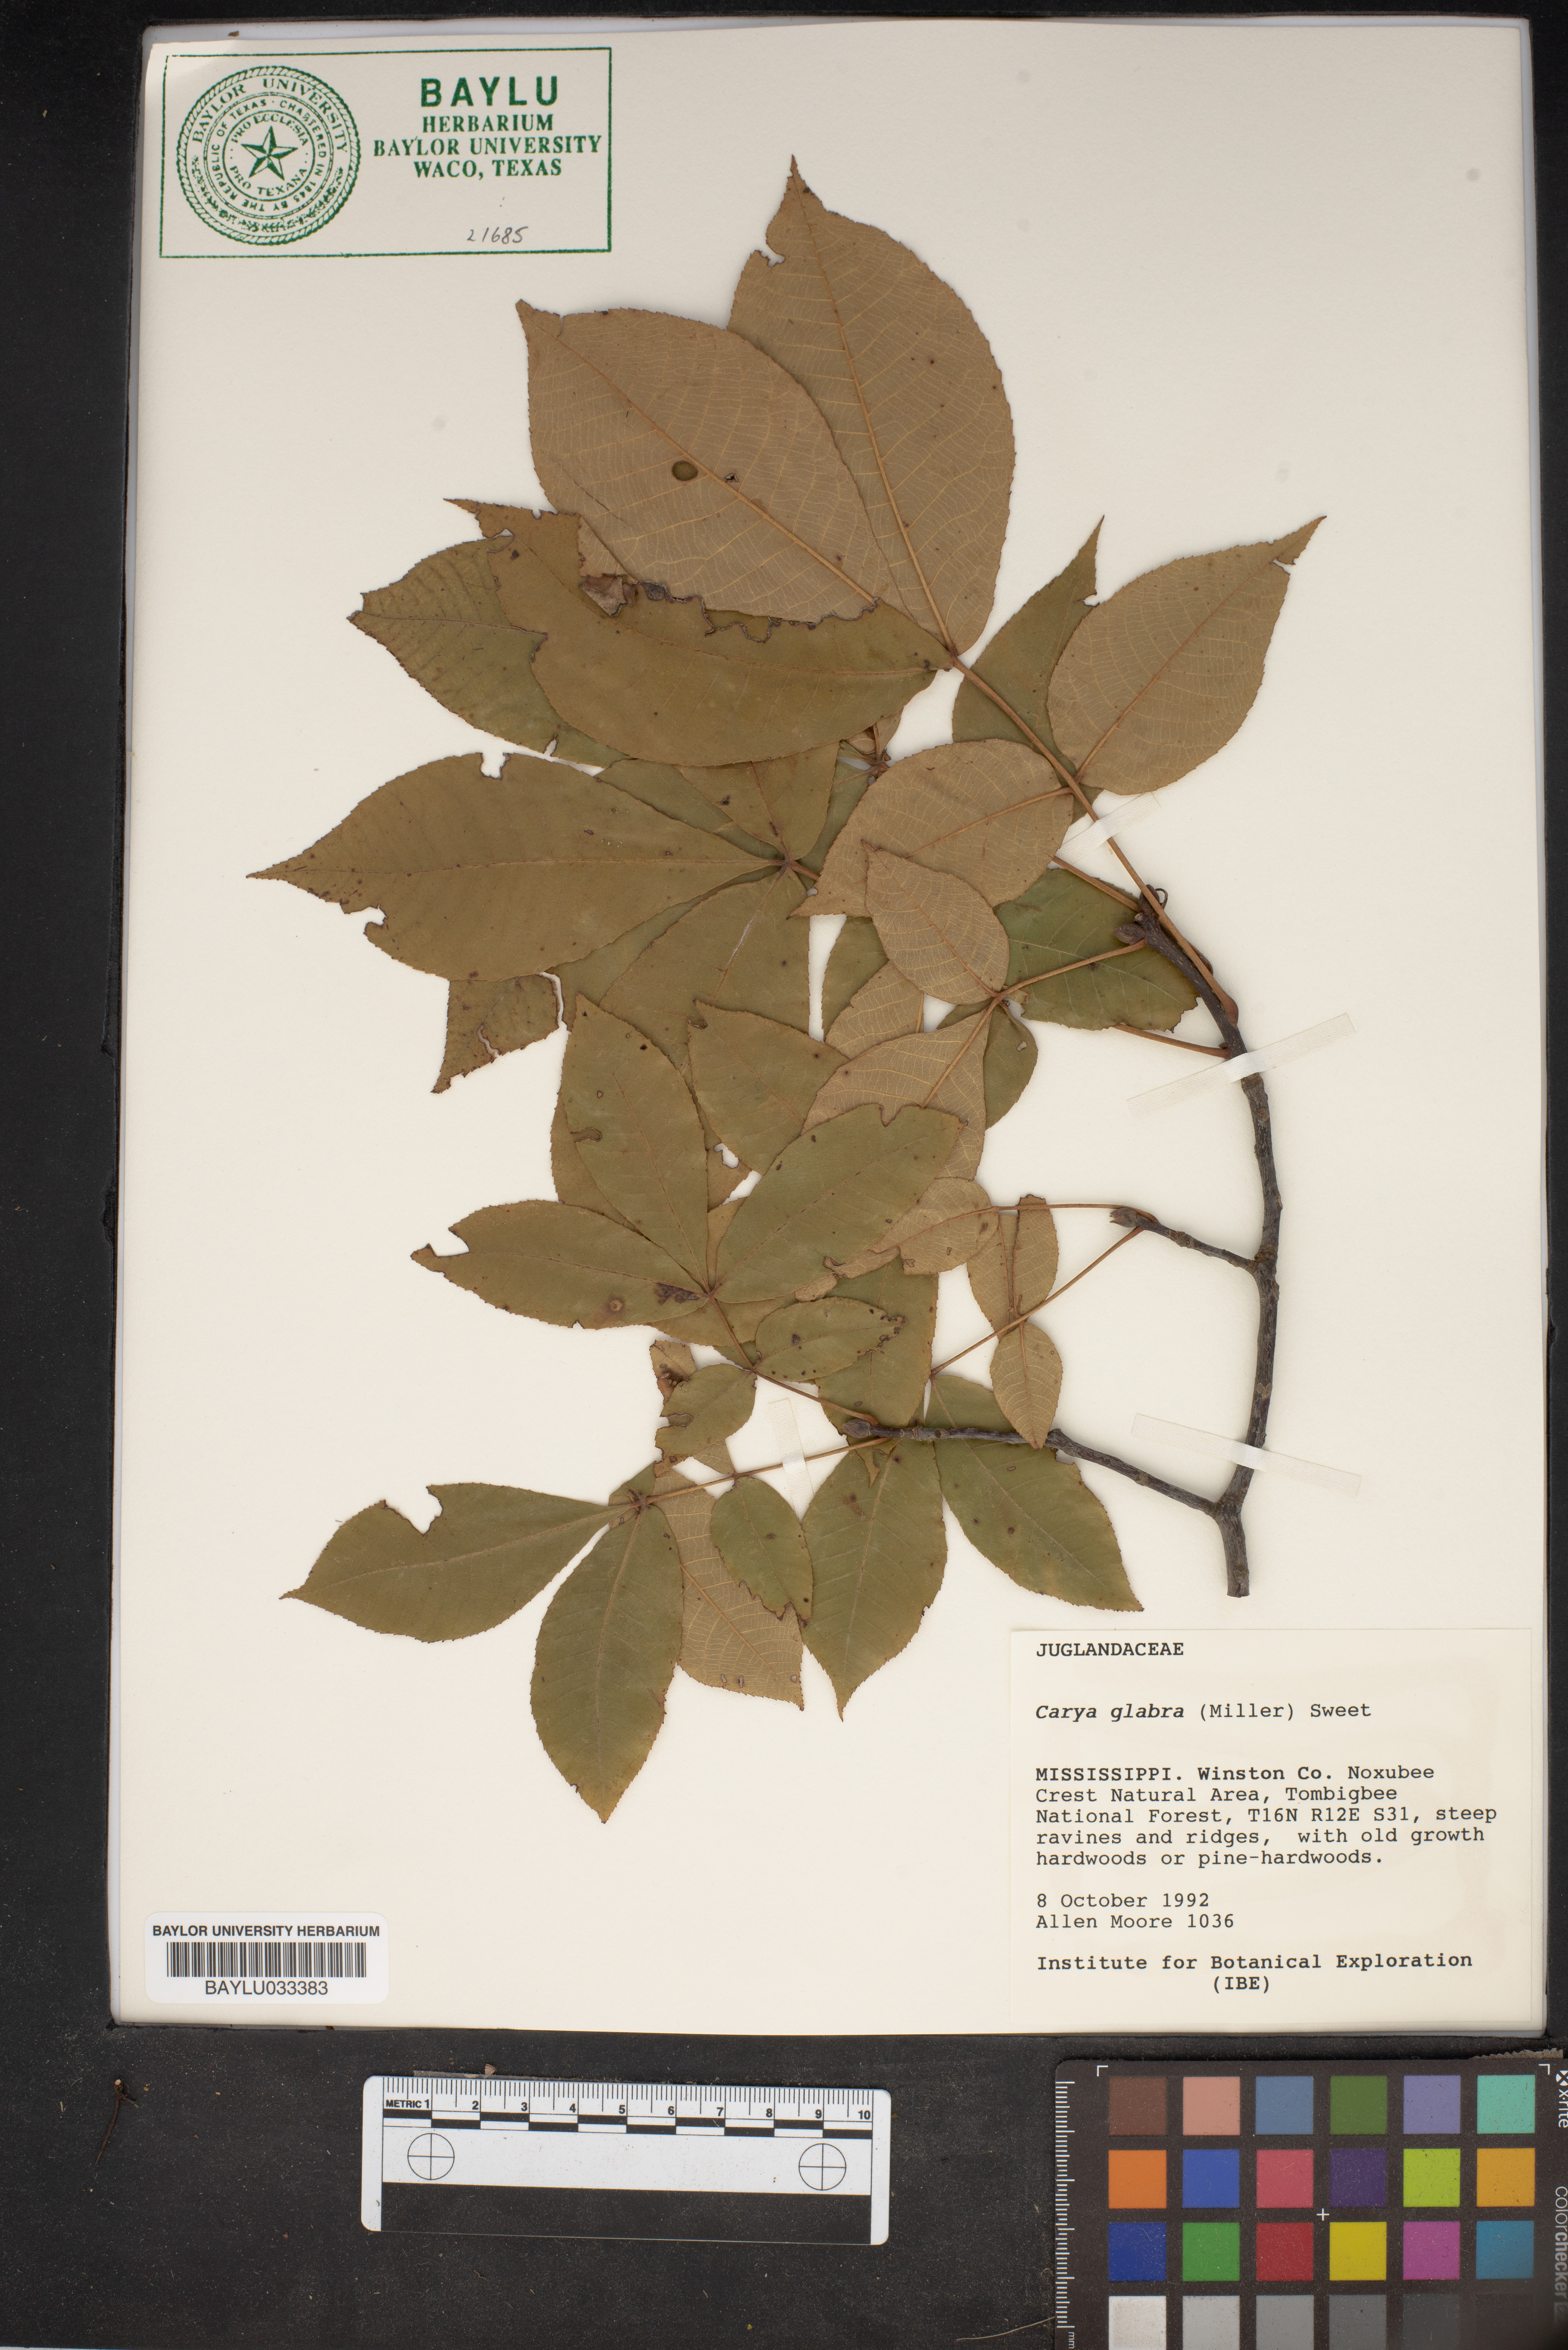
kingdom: Plantae
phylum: Tracheophyta
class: Magnoliopsida
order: Fagales
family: Juglandaceae
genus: Carya
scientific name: Carya glabra
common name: Pignut hickory
